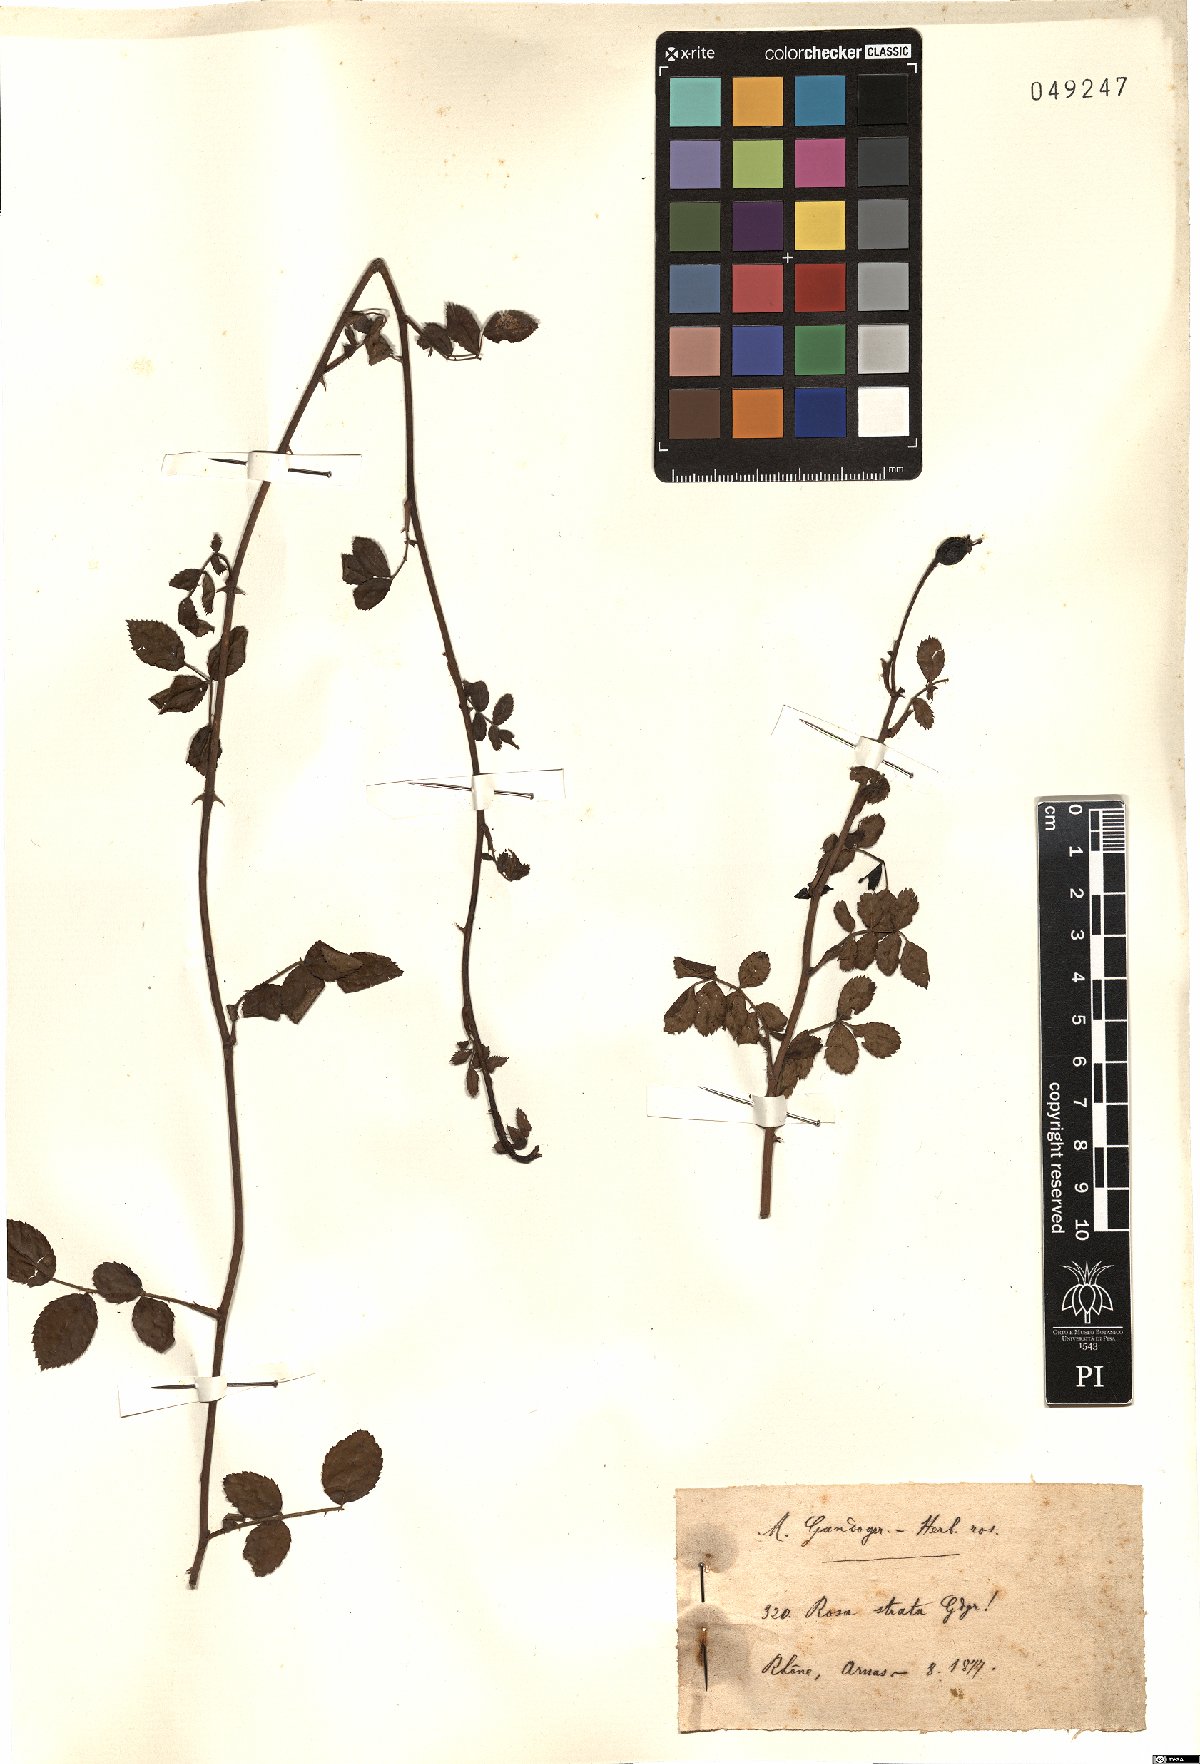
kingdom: Plantae
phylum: Tracheophyta
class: Magnoliopsida
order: Rosales
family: Rosaceae
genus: Rosa
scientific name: Rosa strata
